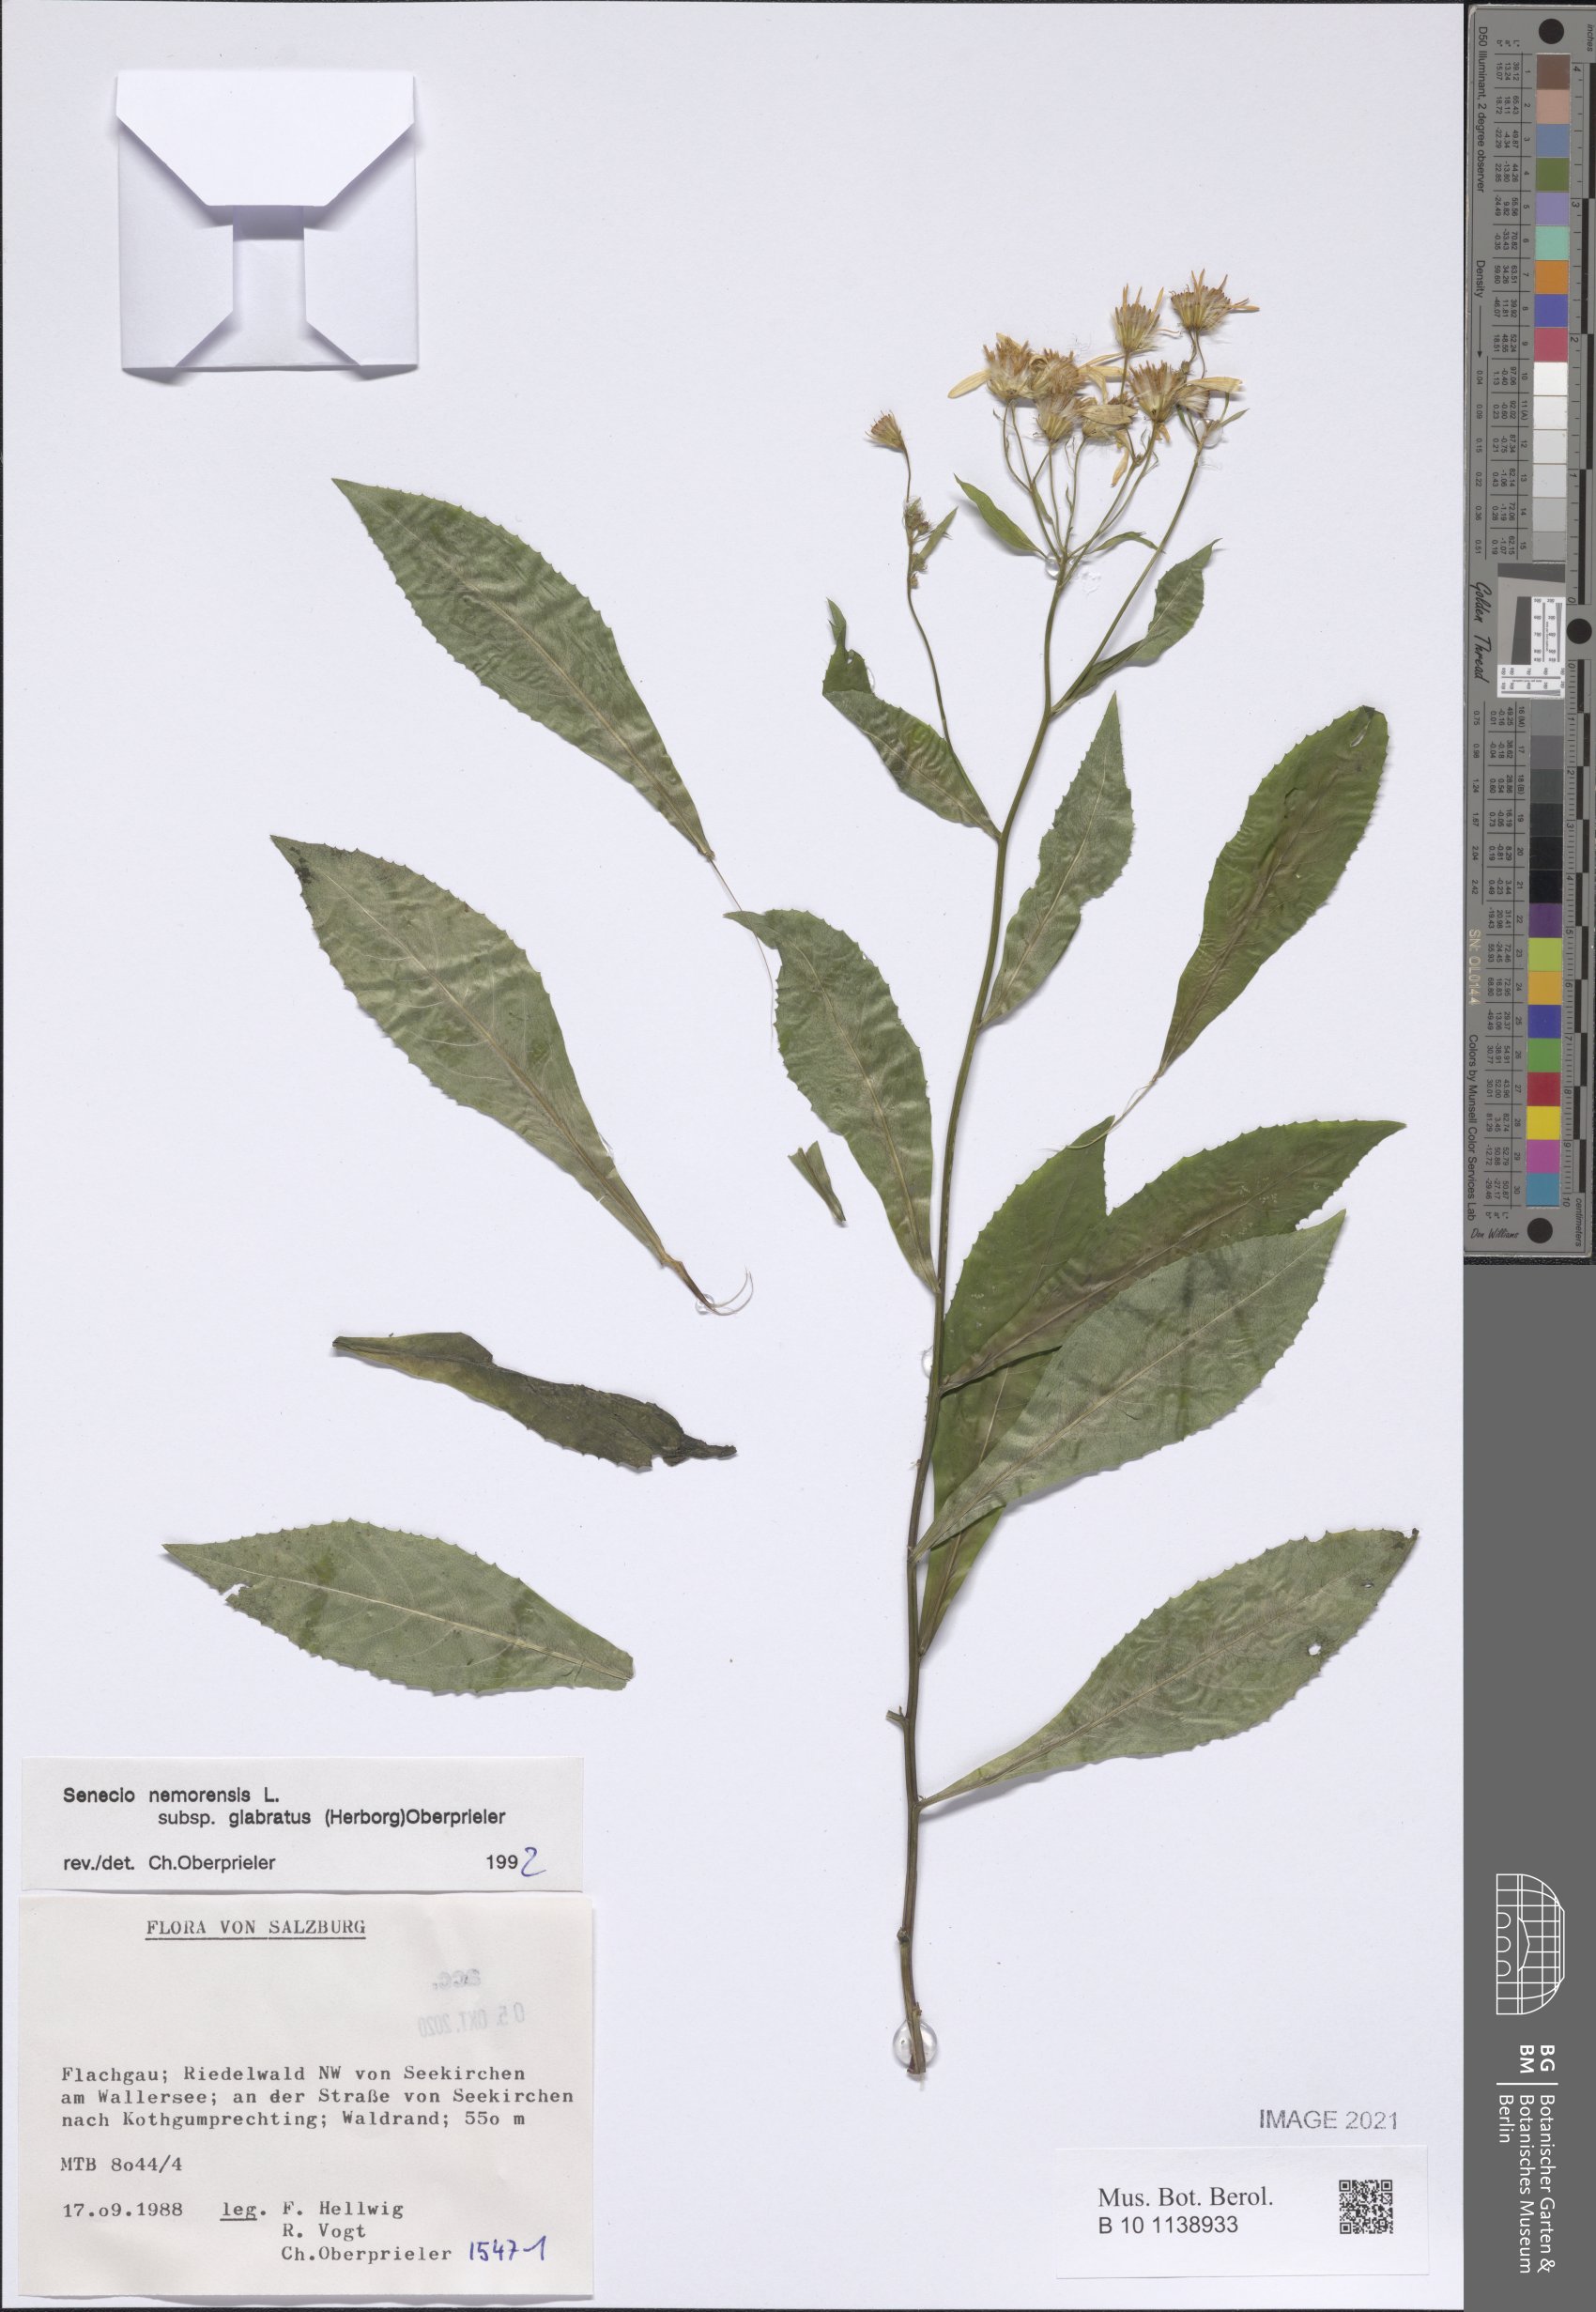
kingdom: Plantae
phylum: Tracheophyta
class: Magnoliopsida
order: Asterales
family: Asteraceae
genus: Senecio
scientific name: Senecio germanicus
